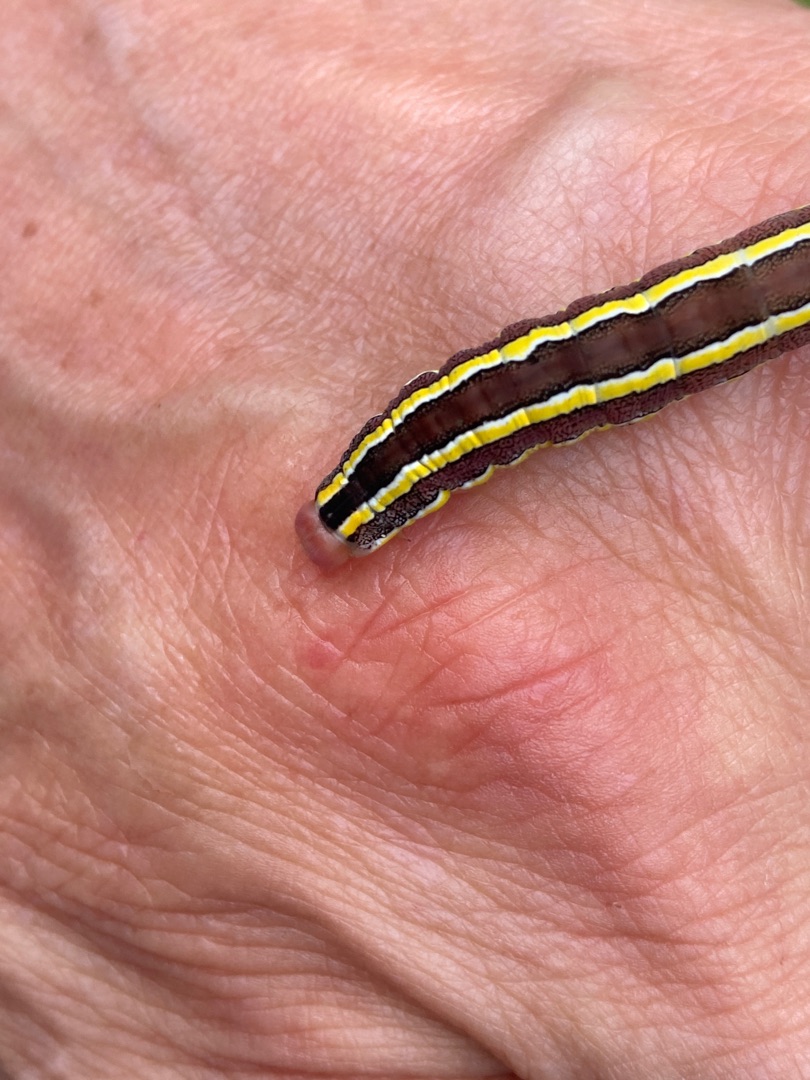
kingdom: Animalia
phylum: Arthropoda
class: Insecta
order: Lepidoptera
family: Noctuidae
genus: Ceramica
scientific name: Ceramica pisi
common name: Ærteugle
